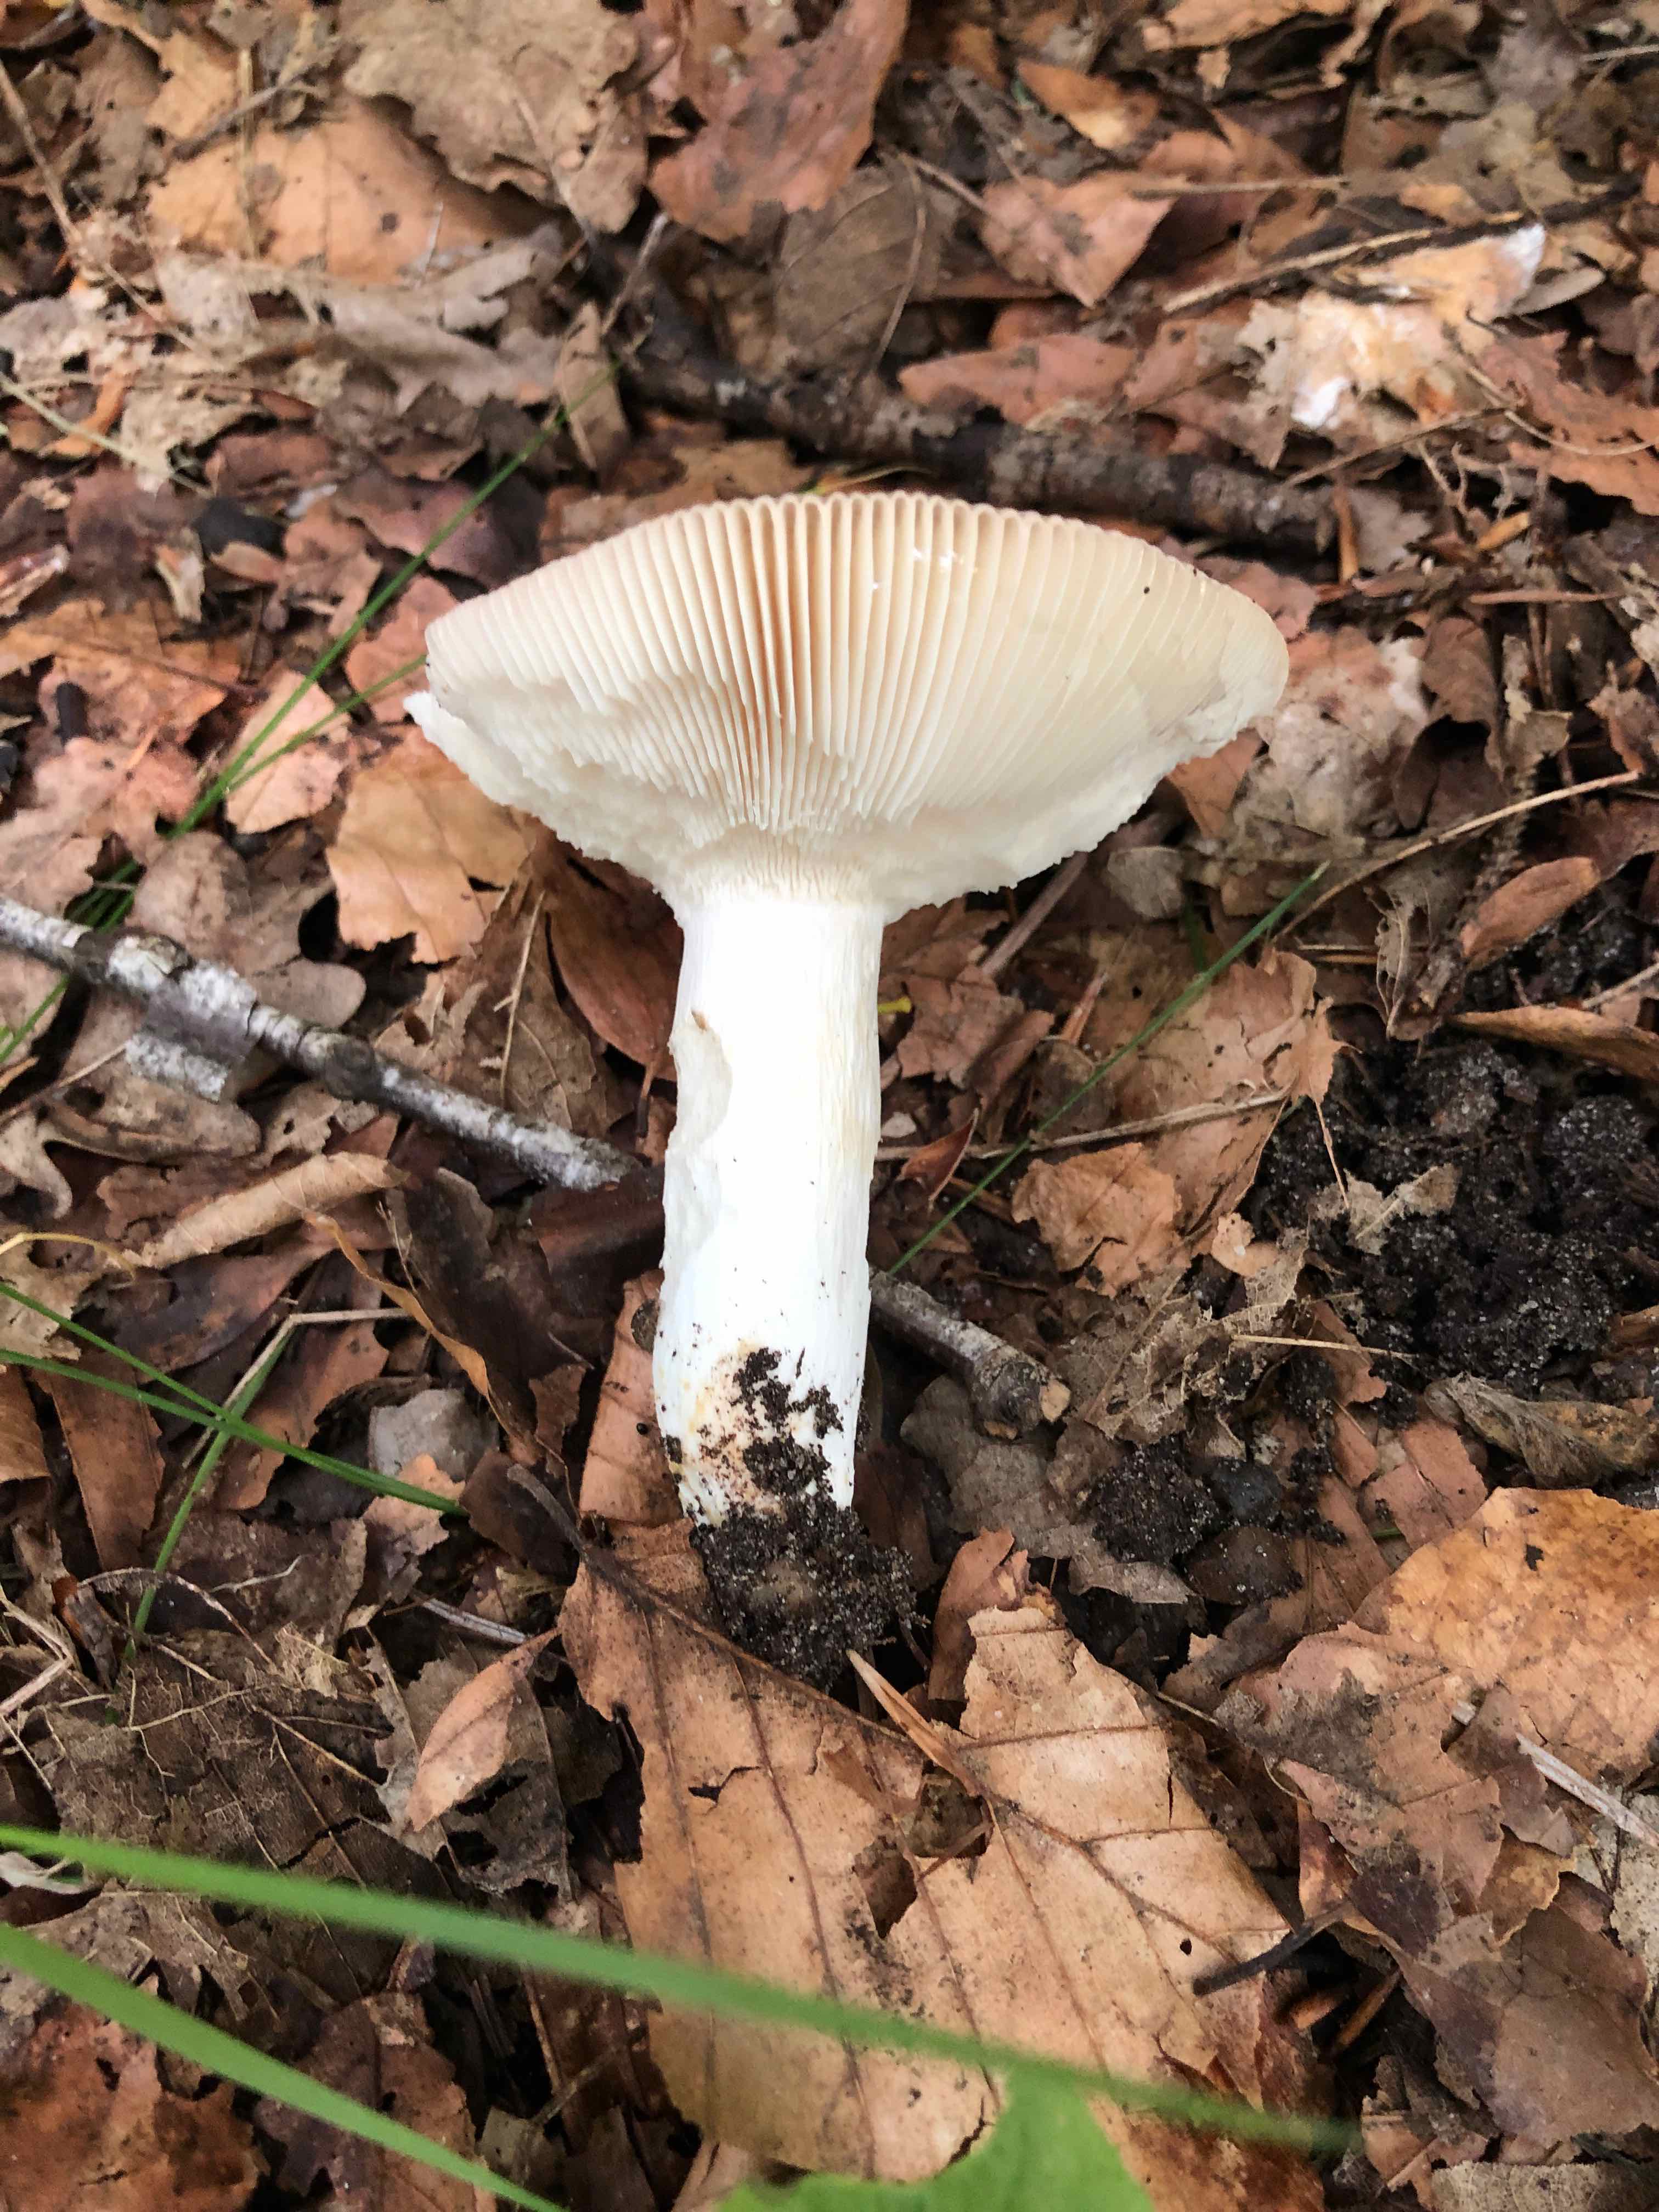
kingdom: Fungi
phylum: Basidiomycota
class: Agaricomycetes
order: Russulales
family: Russulaceae
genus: Russula
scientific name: Russula vesca
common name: spiselig skørhat
